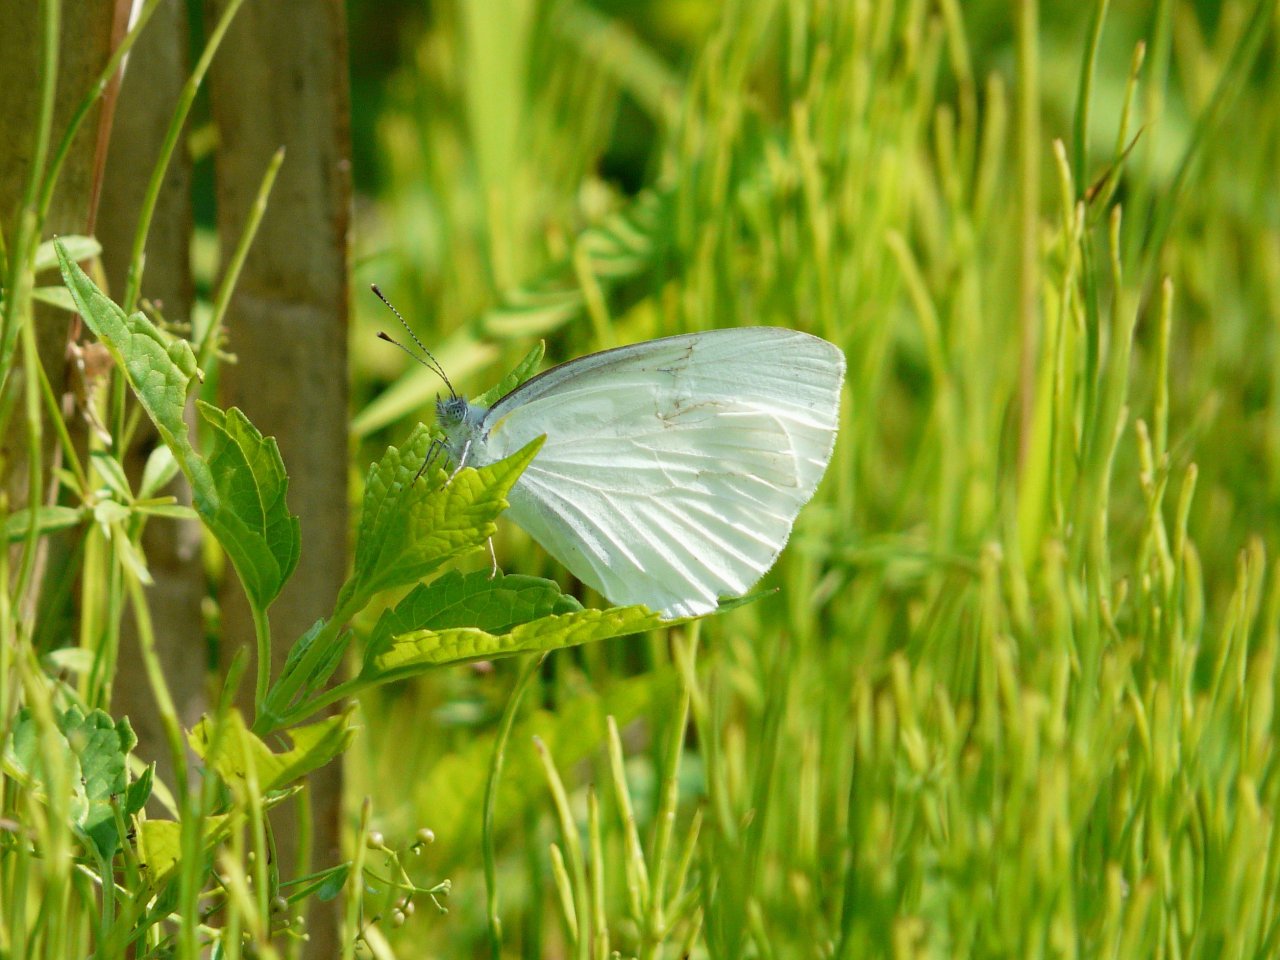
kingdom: Animalia
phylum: Arthropoda
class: Insecta
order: Lepidoptera
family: Pieridae
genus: Pieris
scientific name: Pieris oleracea
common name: Mustard White
